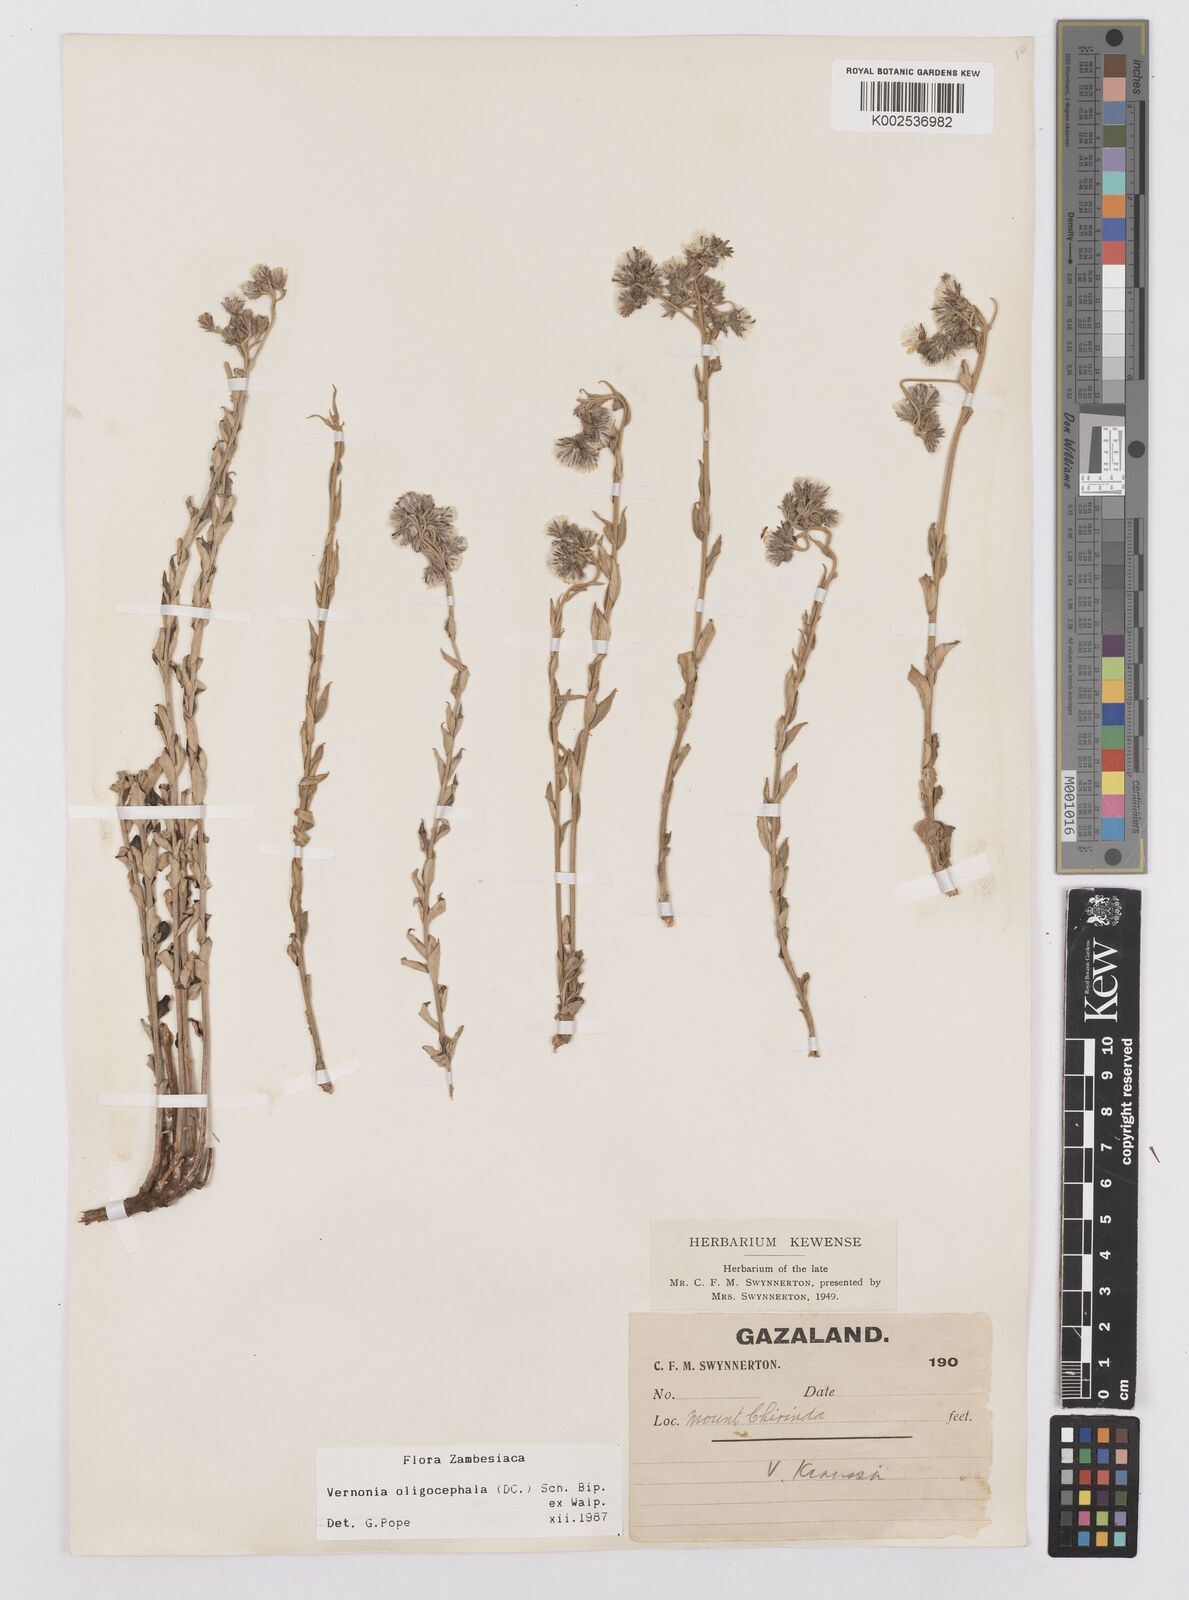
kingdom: Plantae
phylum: Tracheophyta
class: Magnoliopsida
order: Asterales
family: Asteraceae
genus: Hilliardiella
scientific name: Hilliardiella oligocephala
